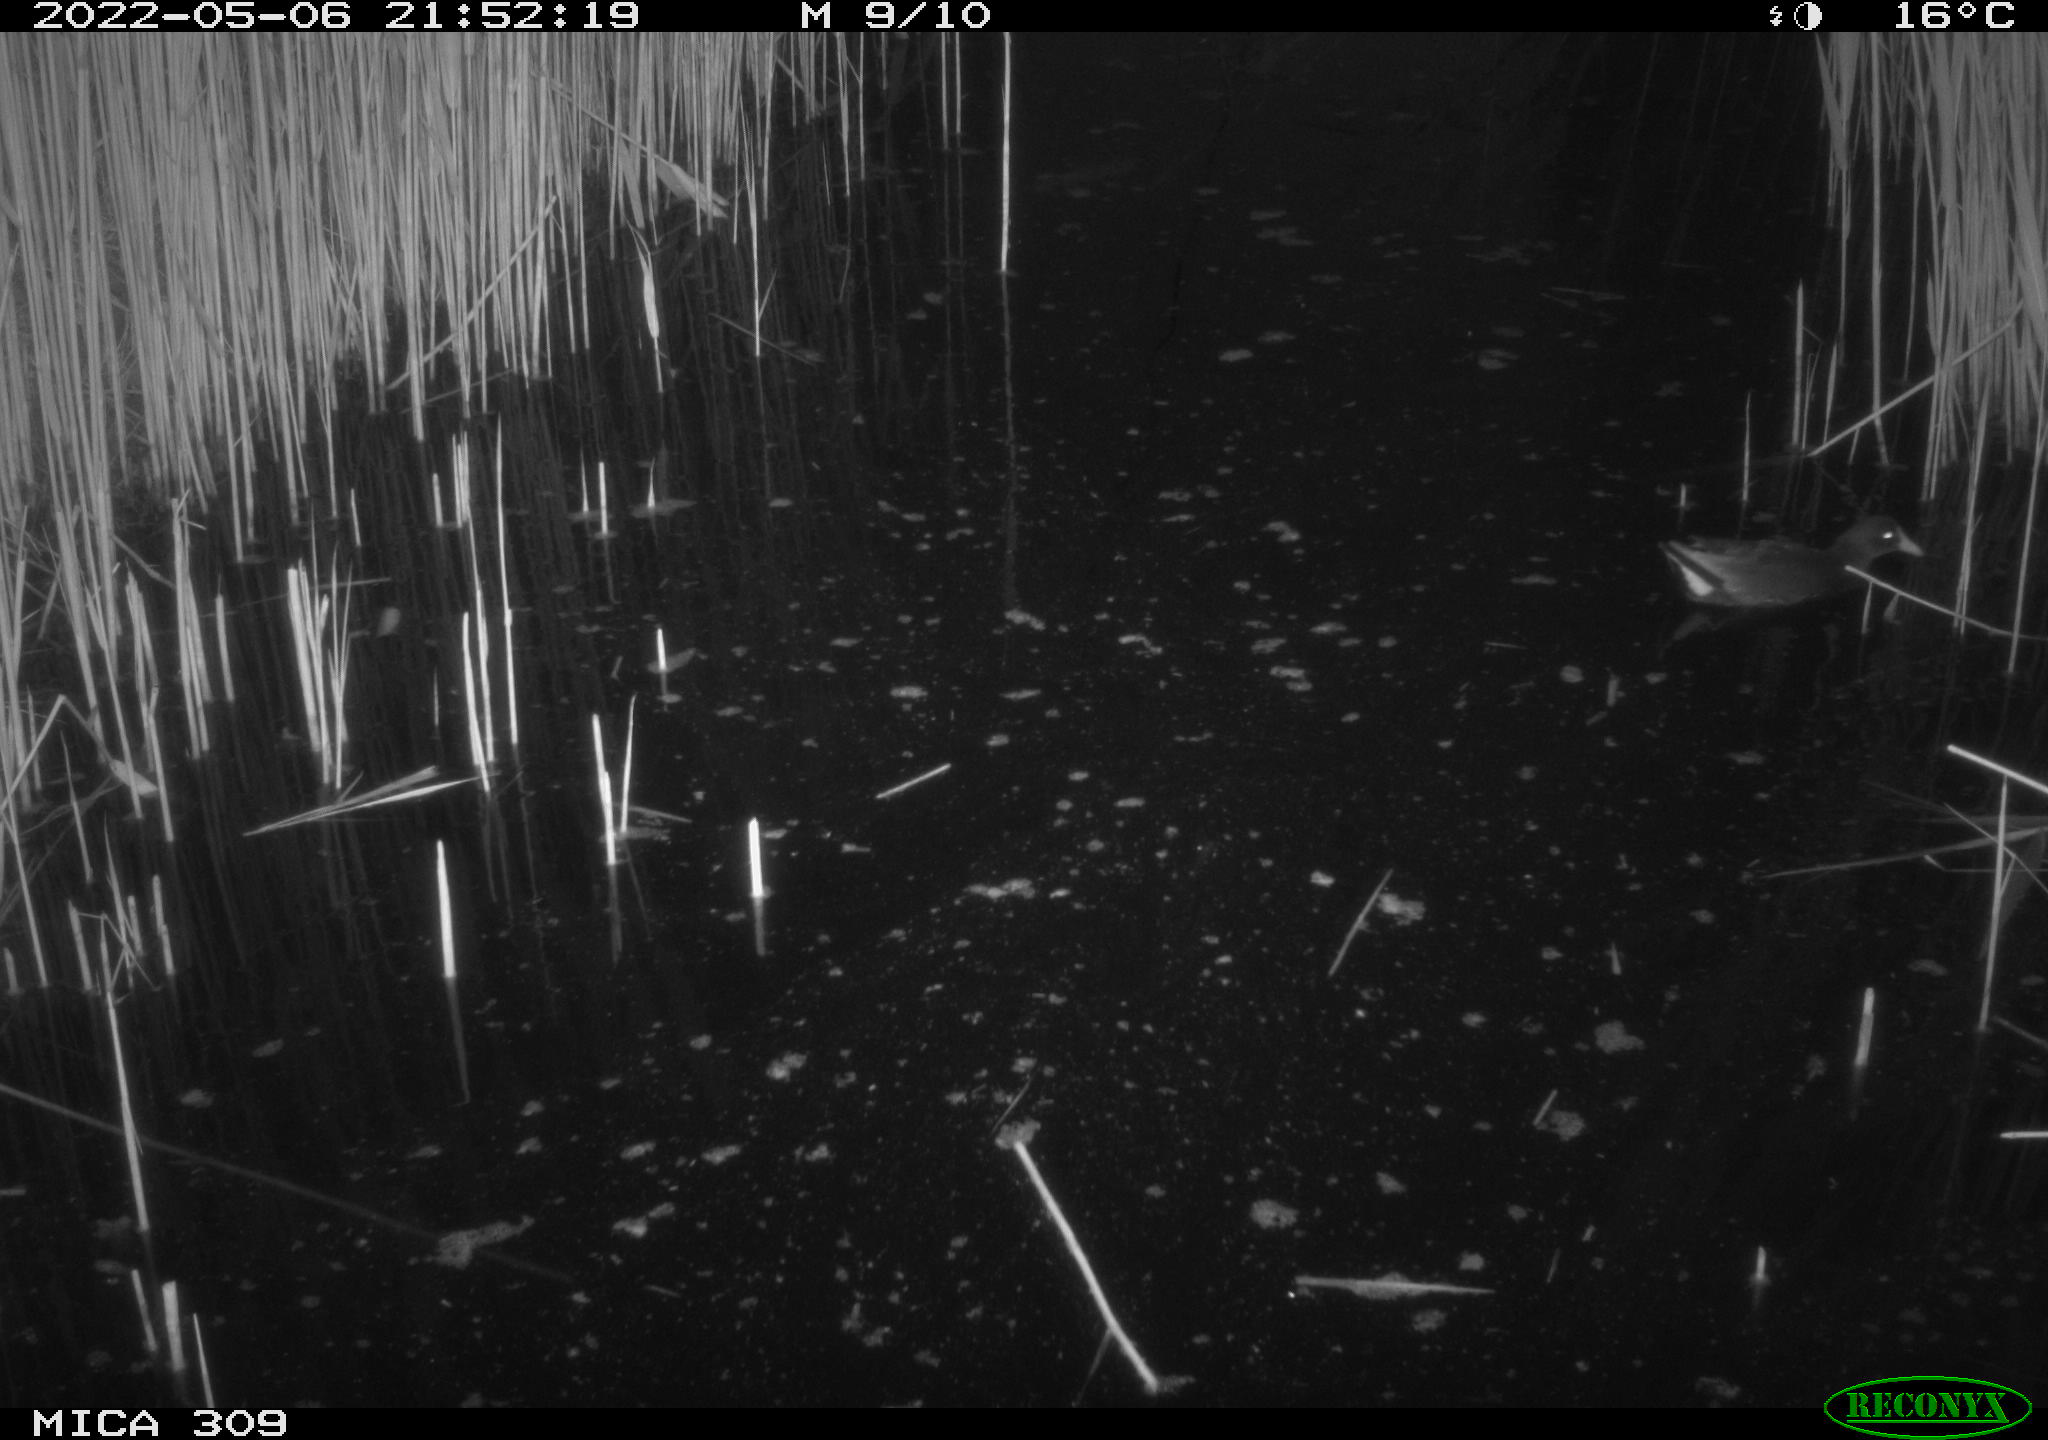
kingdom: Animalia
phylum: Chordata
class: Aves
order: Gruiformes
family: Rallidae
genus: Gallinula
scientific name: Gallinula chloropus
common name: Common moorhen
